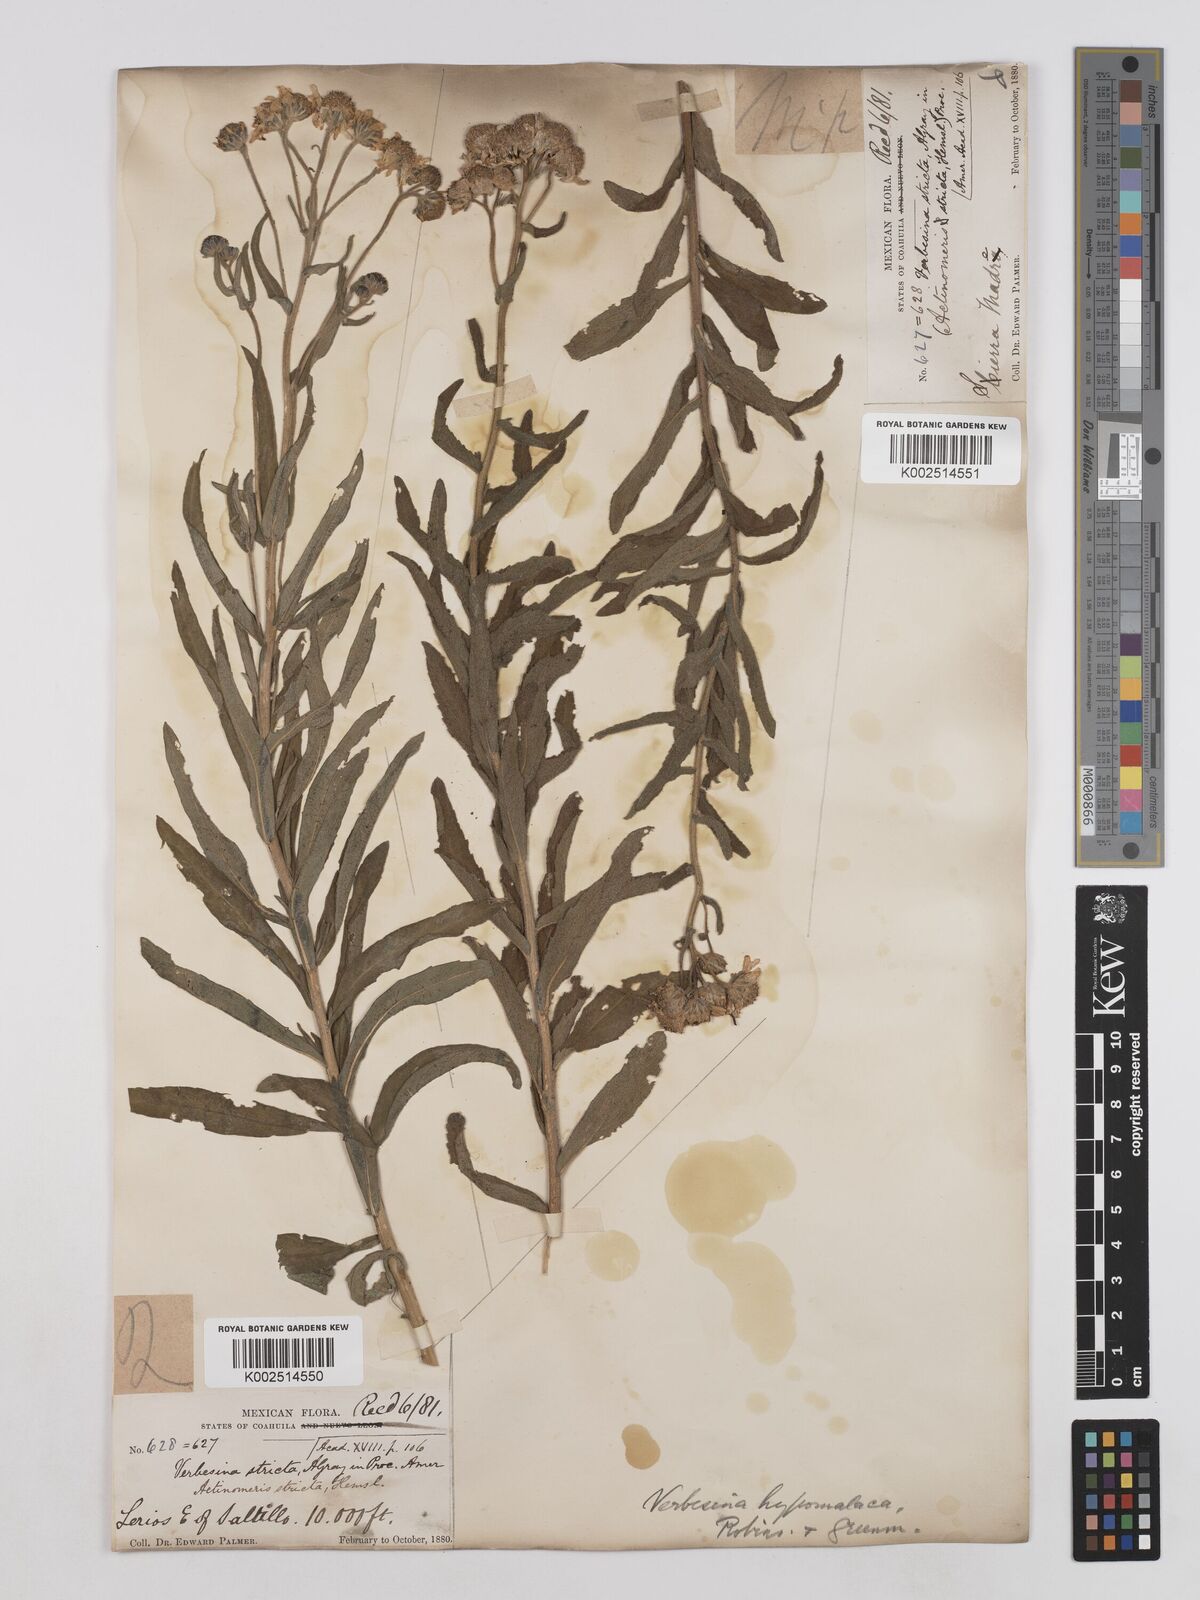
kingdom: Plantae
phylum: Tracheophyta
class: Magnoliopsida
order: Asterales
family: Asteraceae
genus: Verbesina
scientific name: Verbesina hypomalaca
